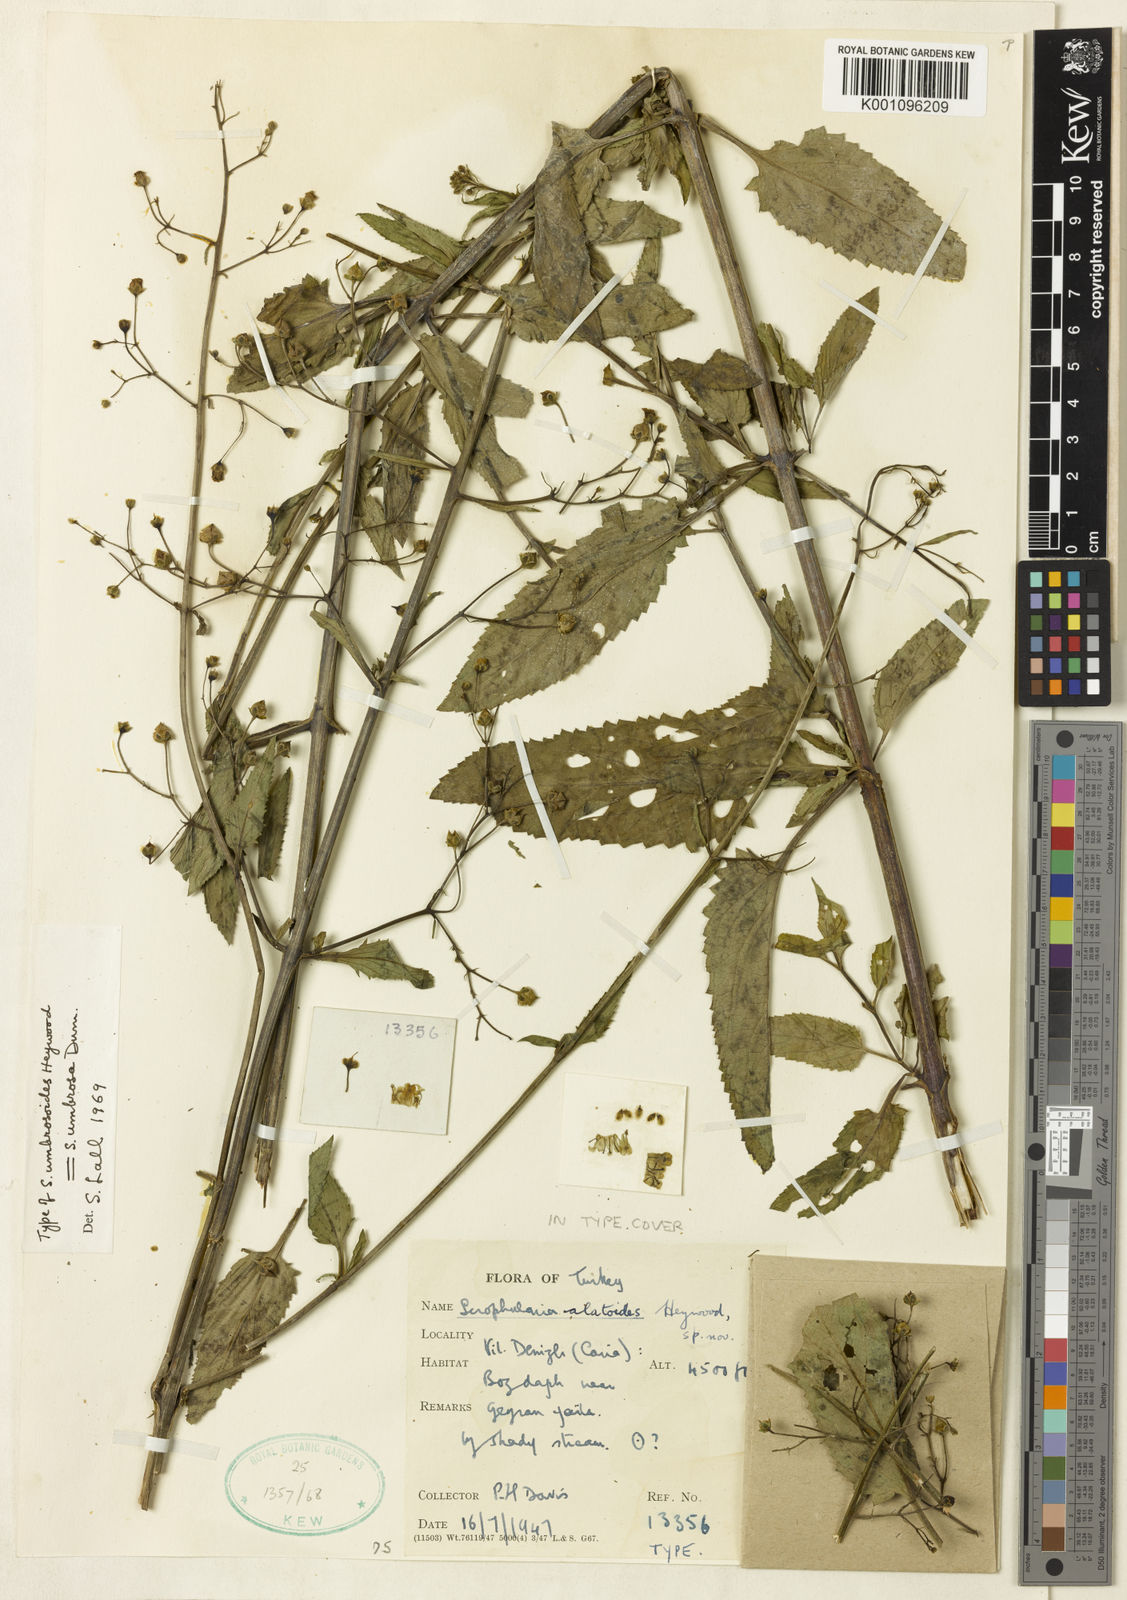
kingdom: Plantae
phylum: Tracheophyta
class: Magnoliopsida
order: Lamiales
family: Scrophulariaceae
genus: Scrophularia
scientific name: Scrophularia
